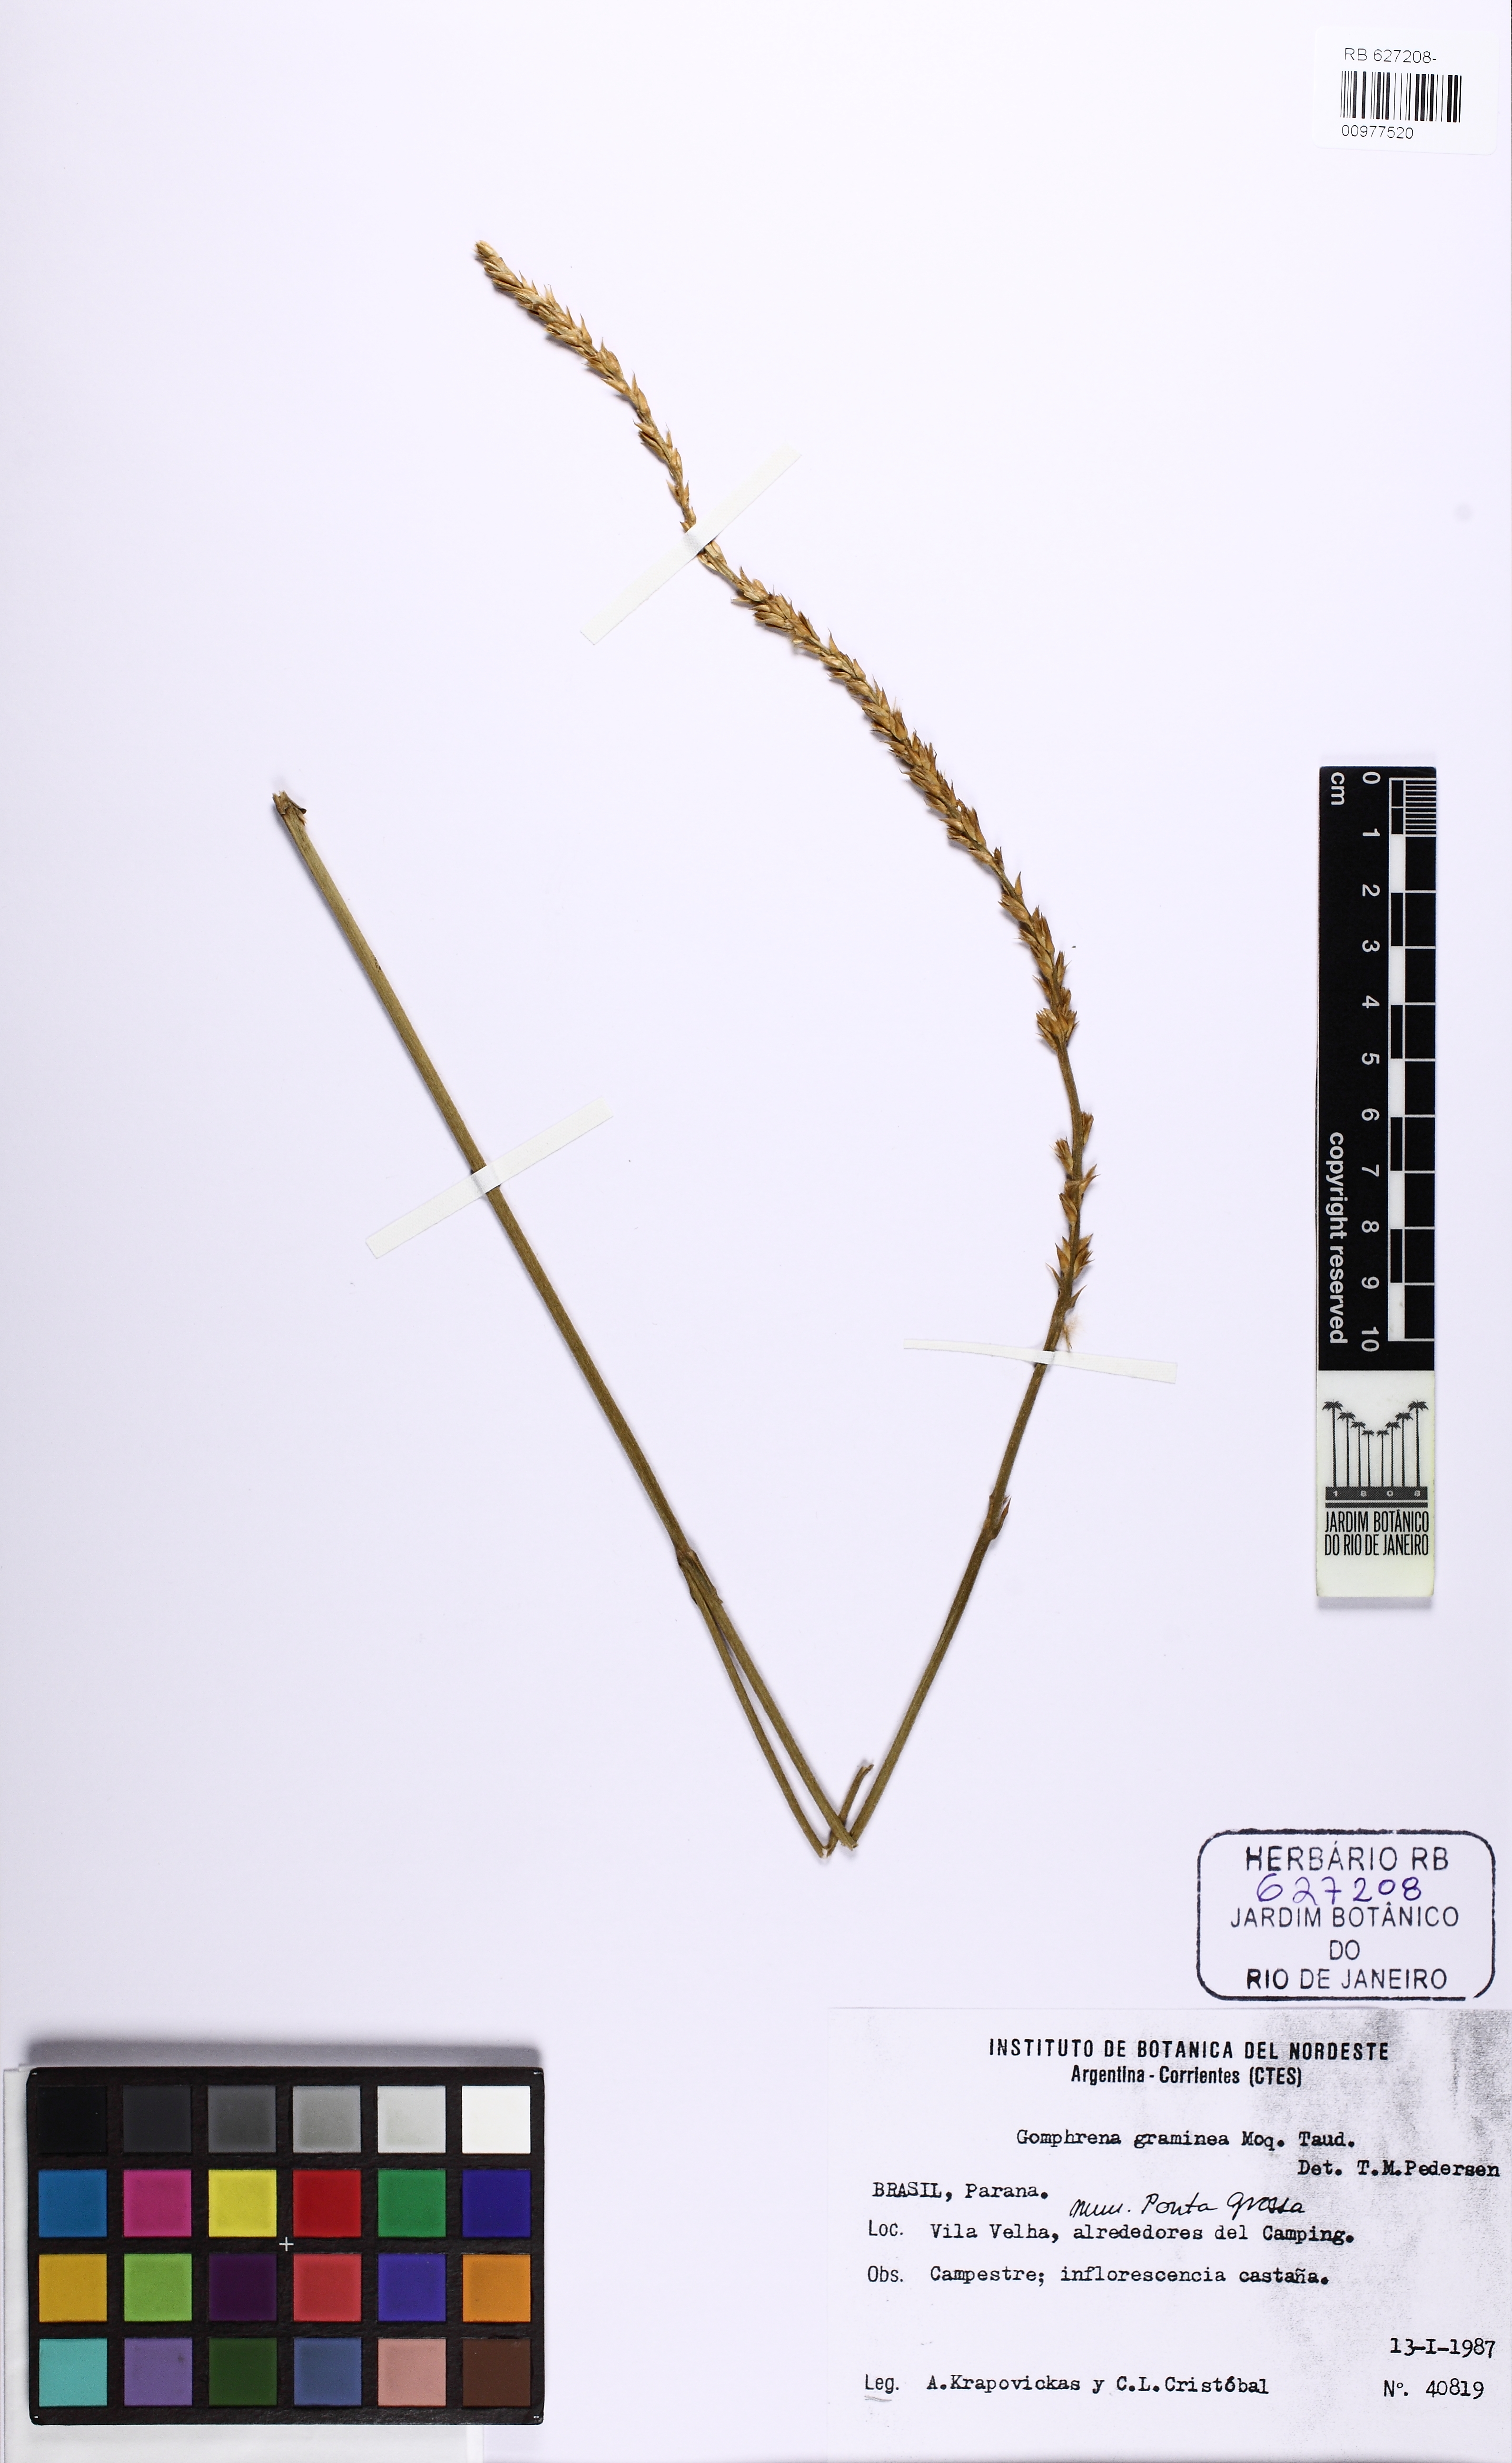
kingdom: Plantae
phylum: Tracheophyta
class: Magnoliopsida
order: Caryophyllales
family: Amaranthaceae
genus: Gomphrena
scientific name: Gomphrena graminea
